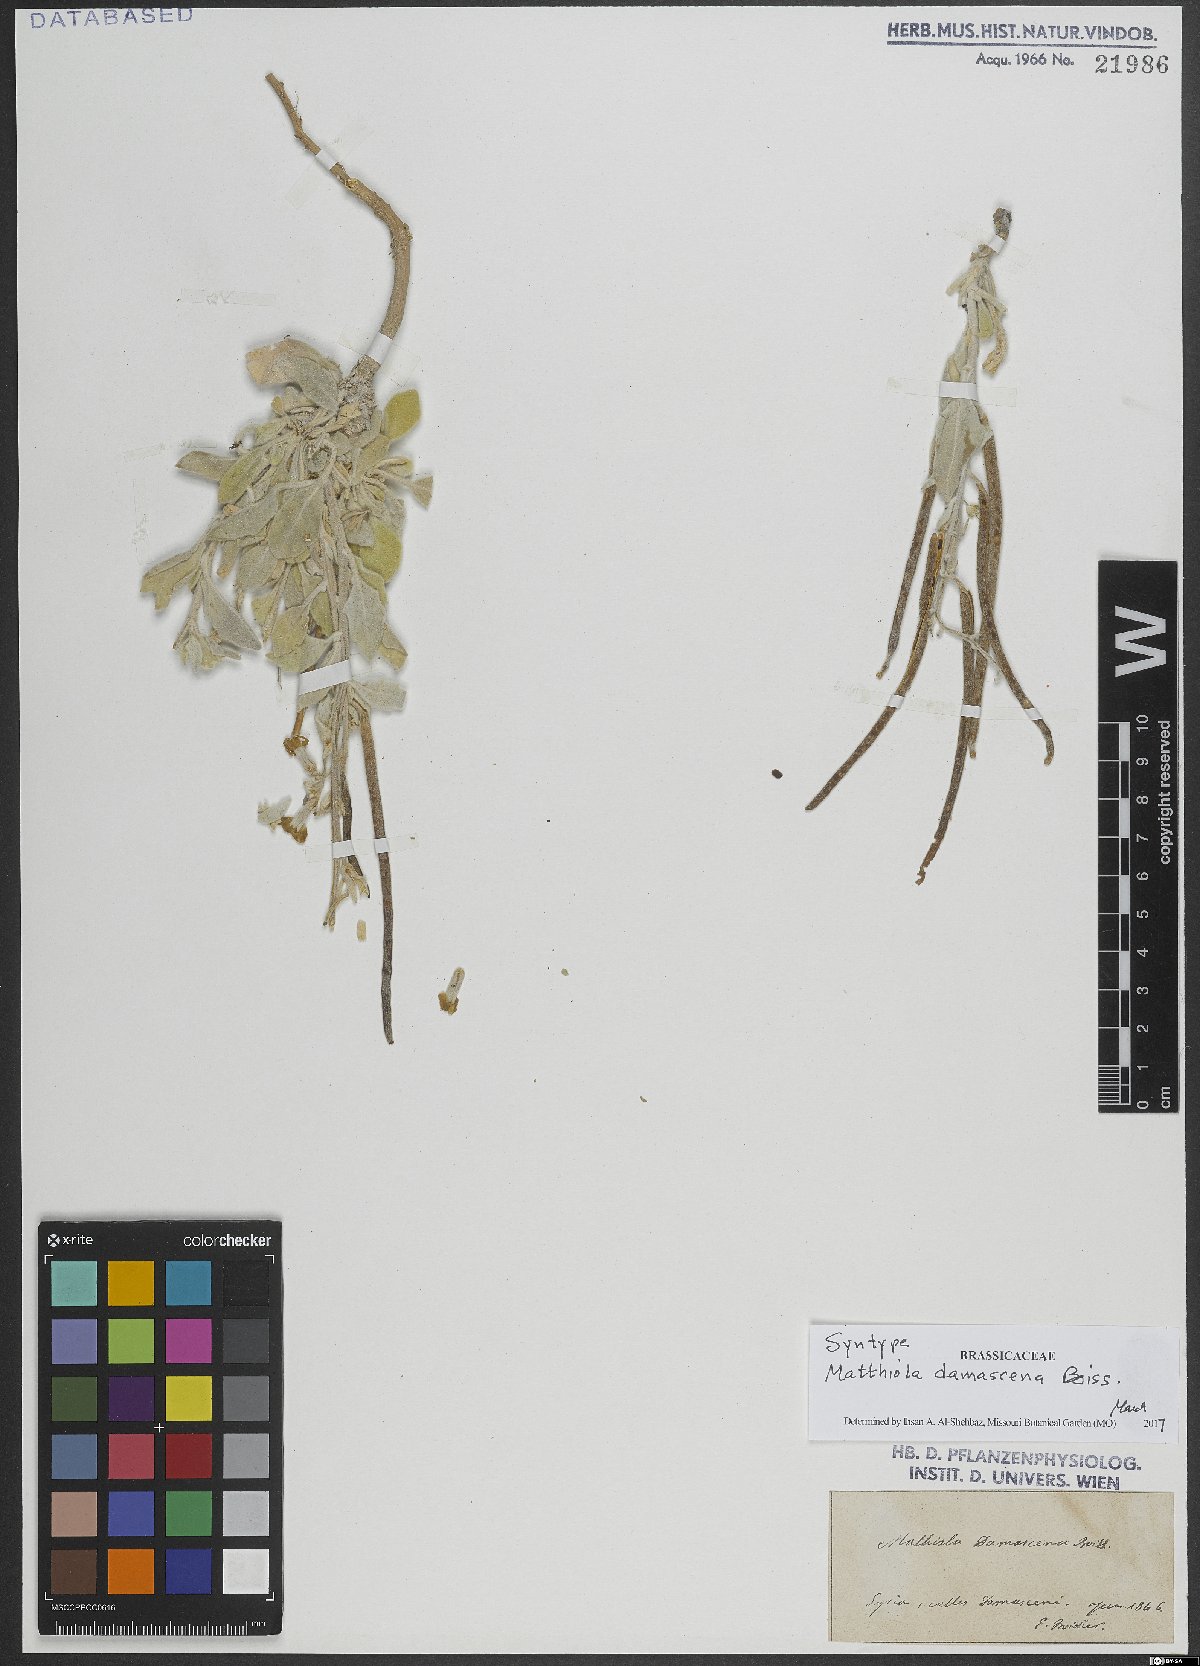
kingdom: Plantae
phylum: Tracheophyta
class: Magnoliopsida
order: Brassicales
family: Brassicaceae
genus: Matthiola
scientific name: Matthiola damascena
